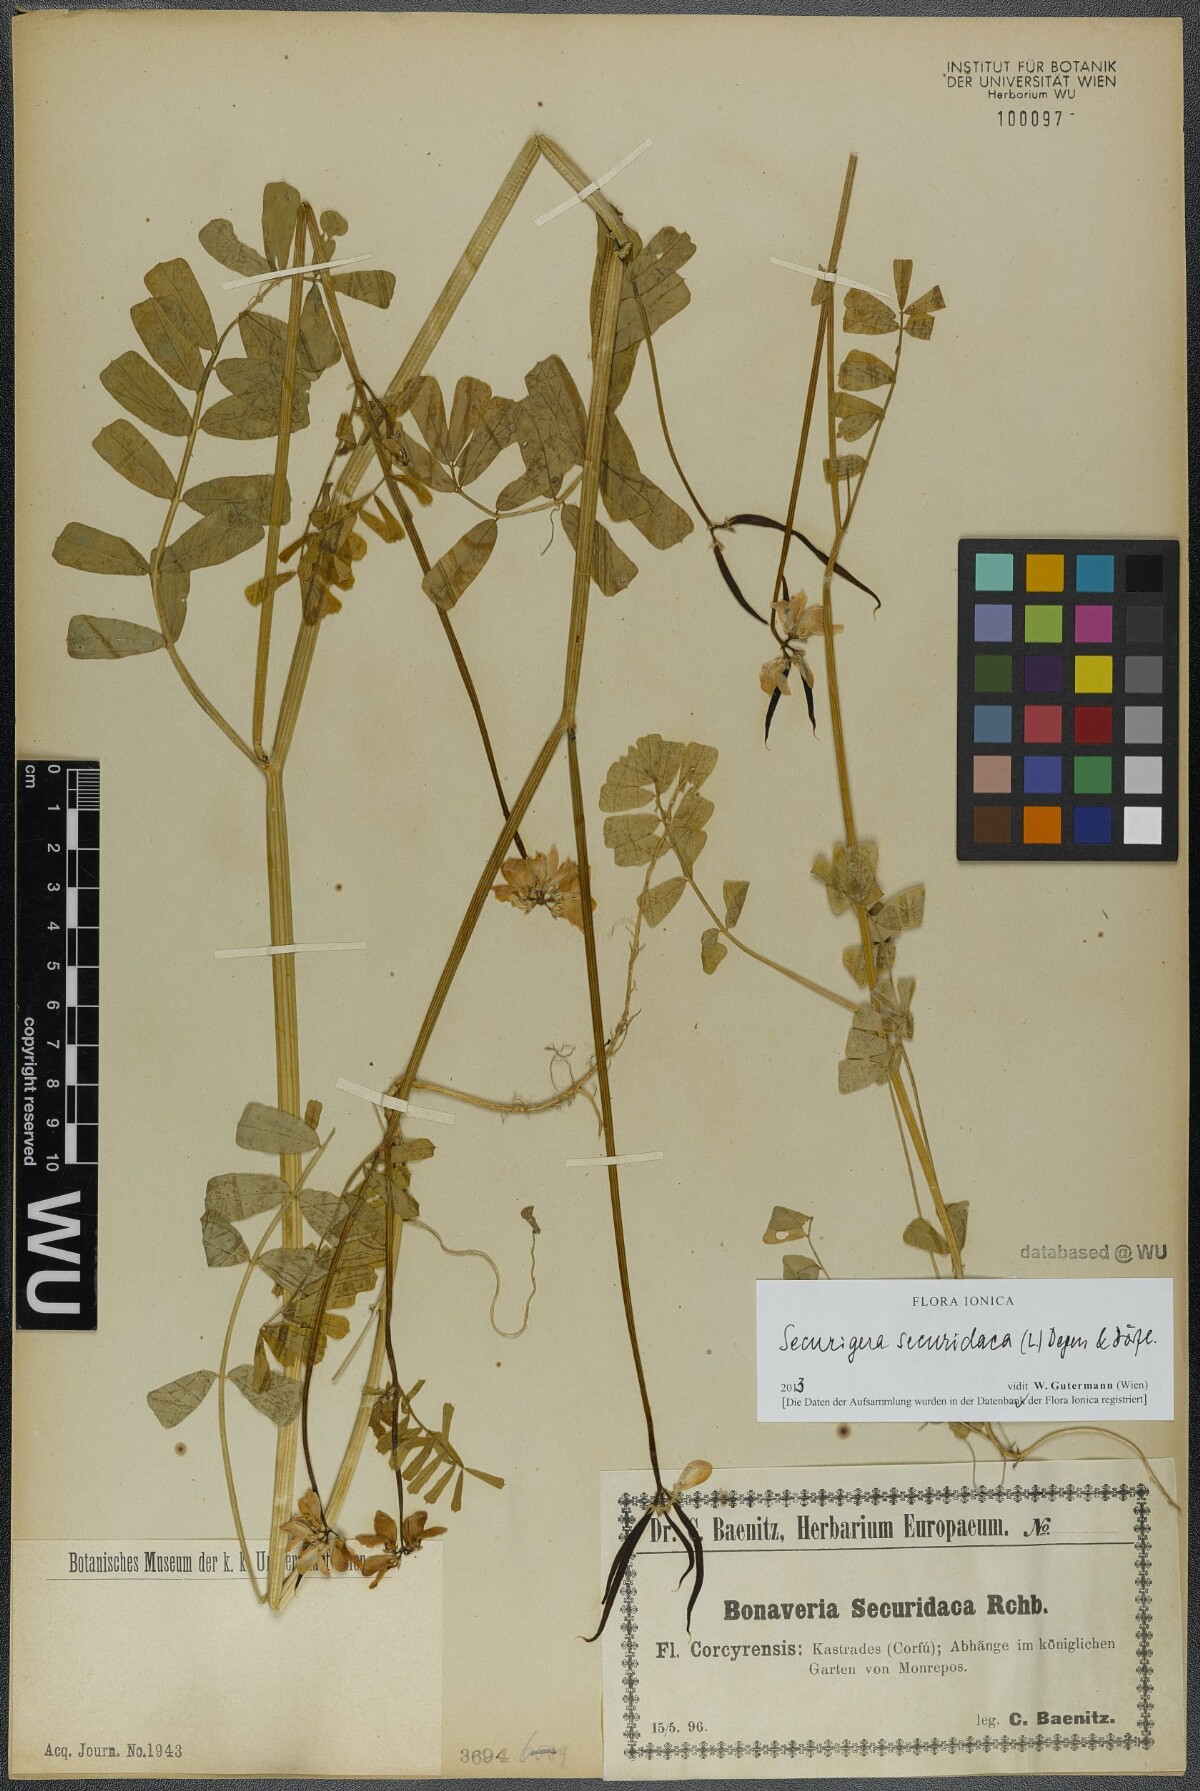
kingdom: Plantae
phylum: Tracheophyta
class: Magnoliopsida
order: Fabales
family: Fabaceae
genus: Coronilla
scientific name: Coronilla securidaca
